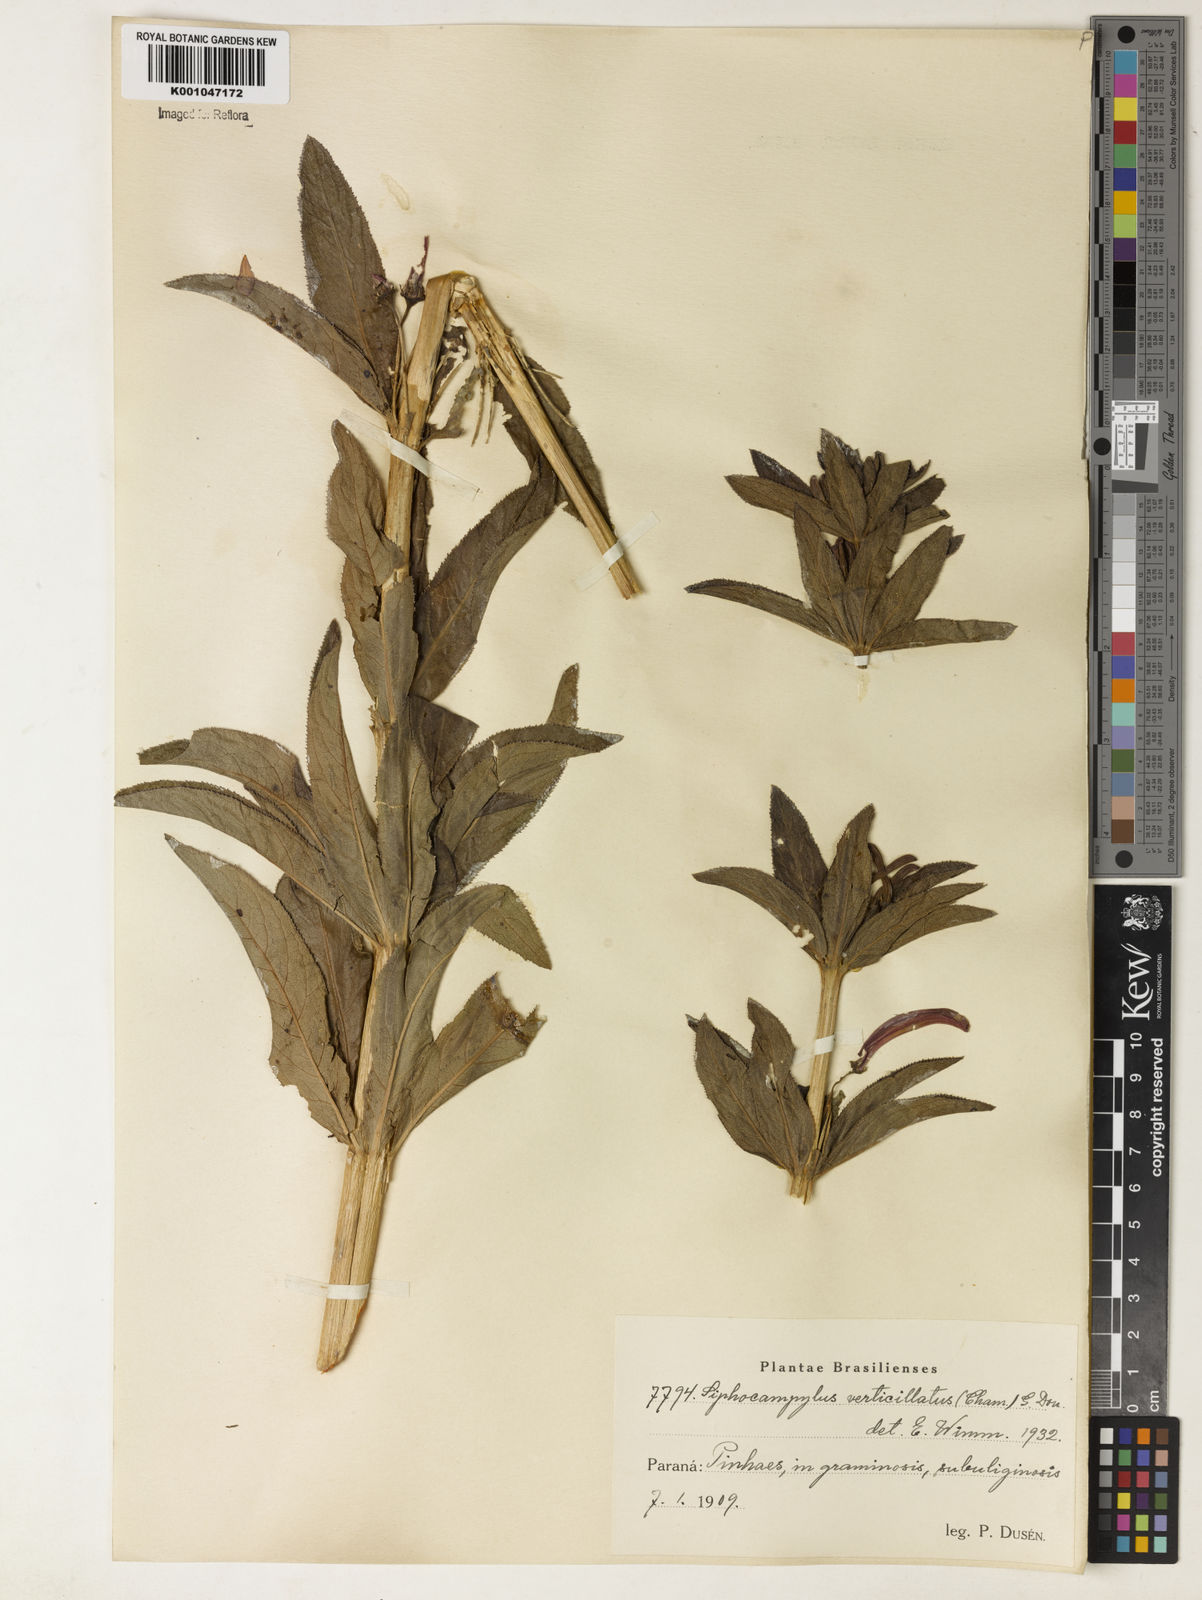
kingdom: Plantae
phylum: Tracheophyta
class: Magnoliopsida
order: Asterales
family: Campanulaceae
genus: Siphocampylus
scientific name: Siphocampylus verticillatus
